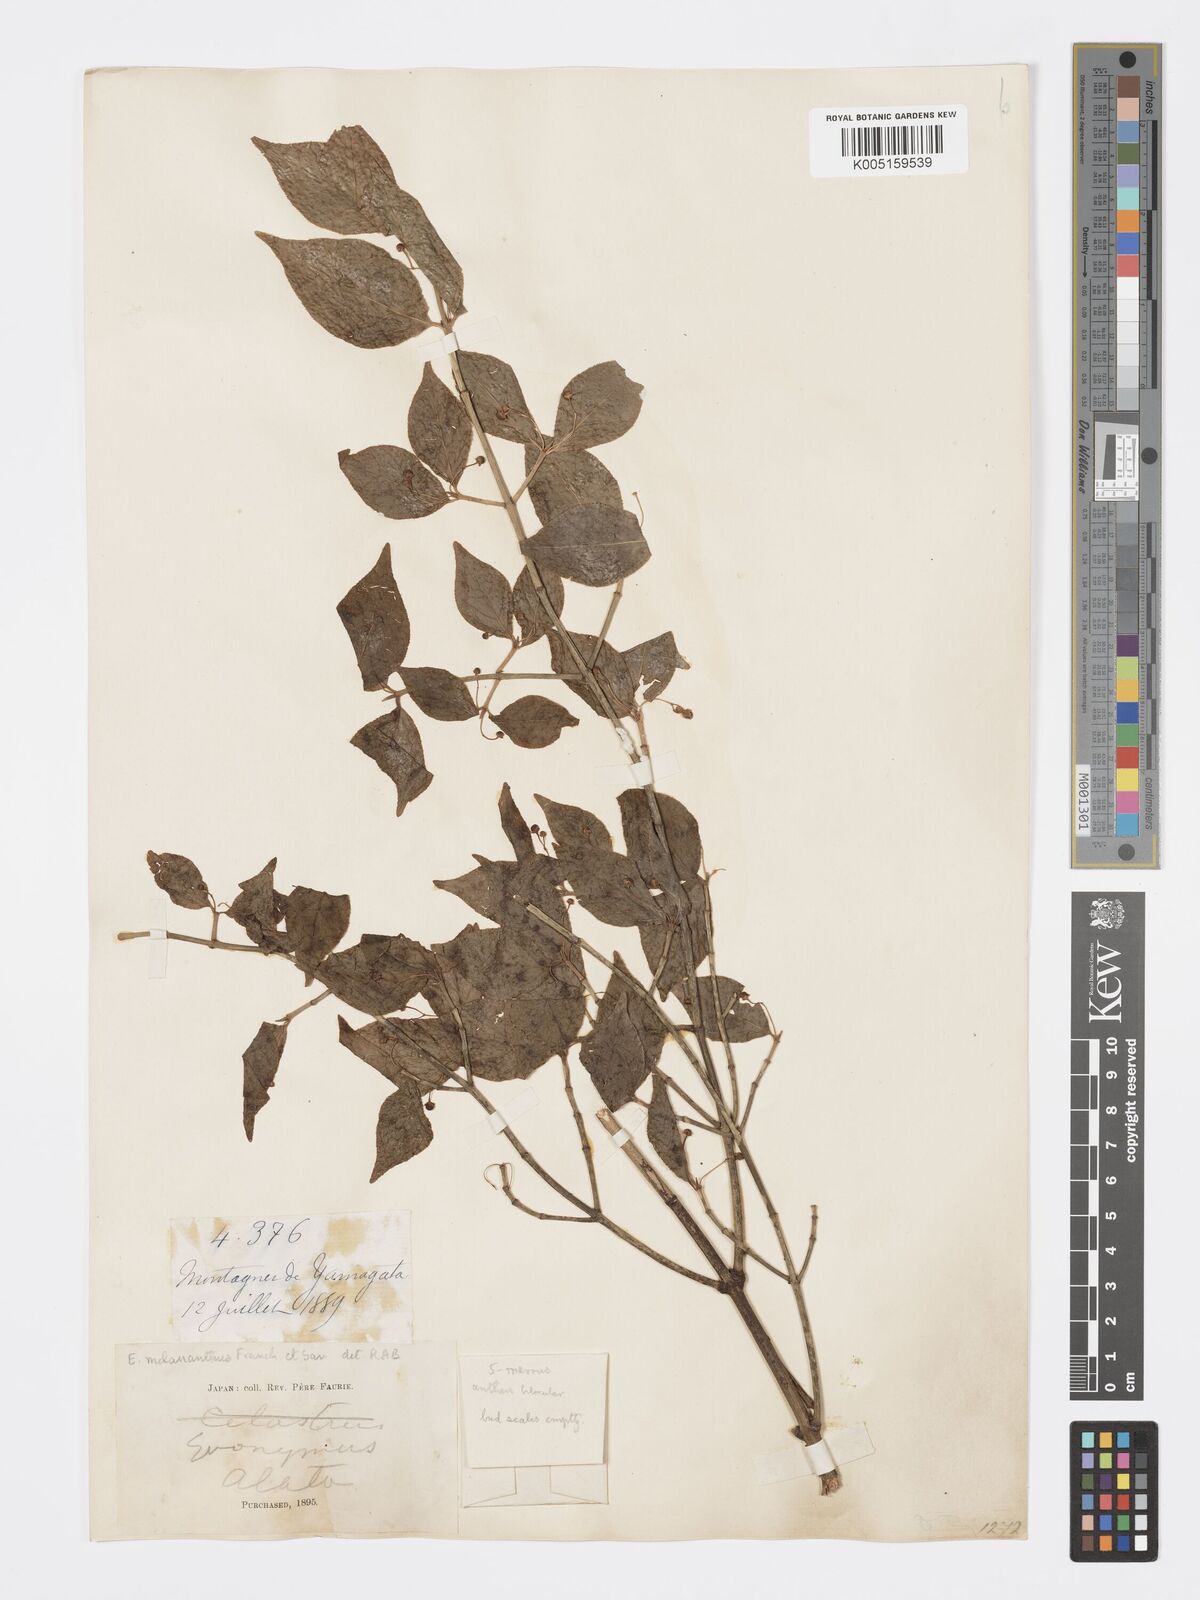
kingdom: Plantae
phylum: Tracheophyta
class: Magnoliopsida
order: Celastrales
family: Celastraceae
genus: Euonymus
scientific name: Euonymus melananthus
